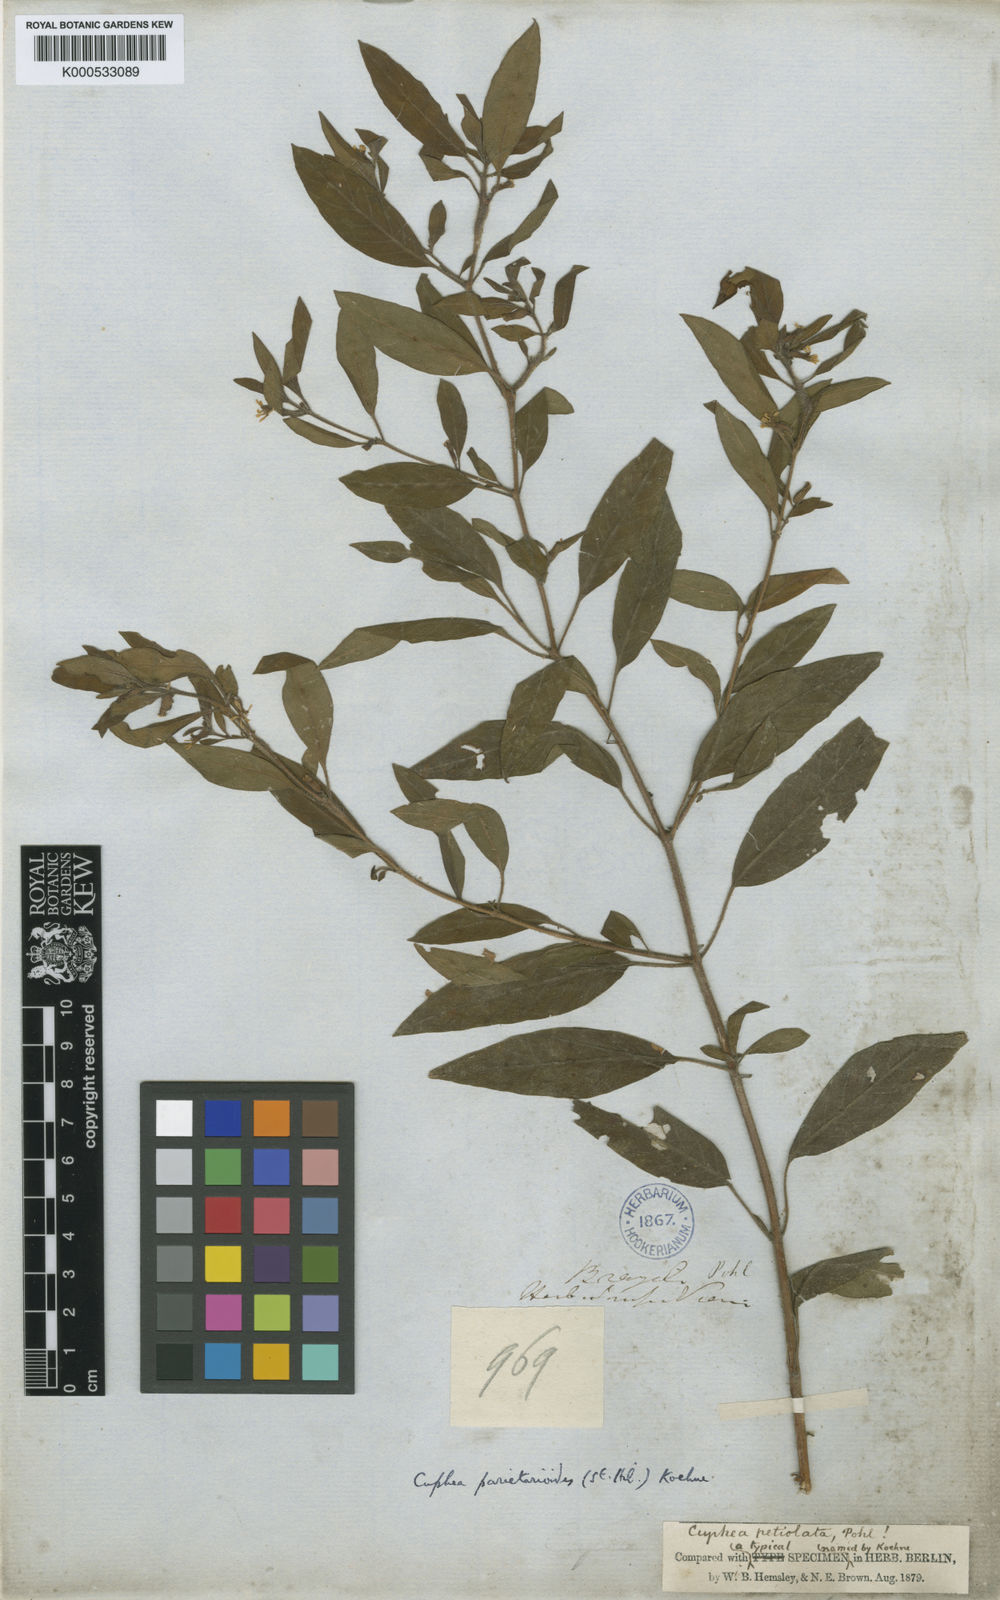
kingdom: Plantae
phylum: Tracheophyta
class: Magnoliopsida
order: Myrtales
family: Lythraceae
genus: Cuphea
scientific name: Cuphea
